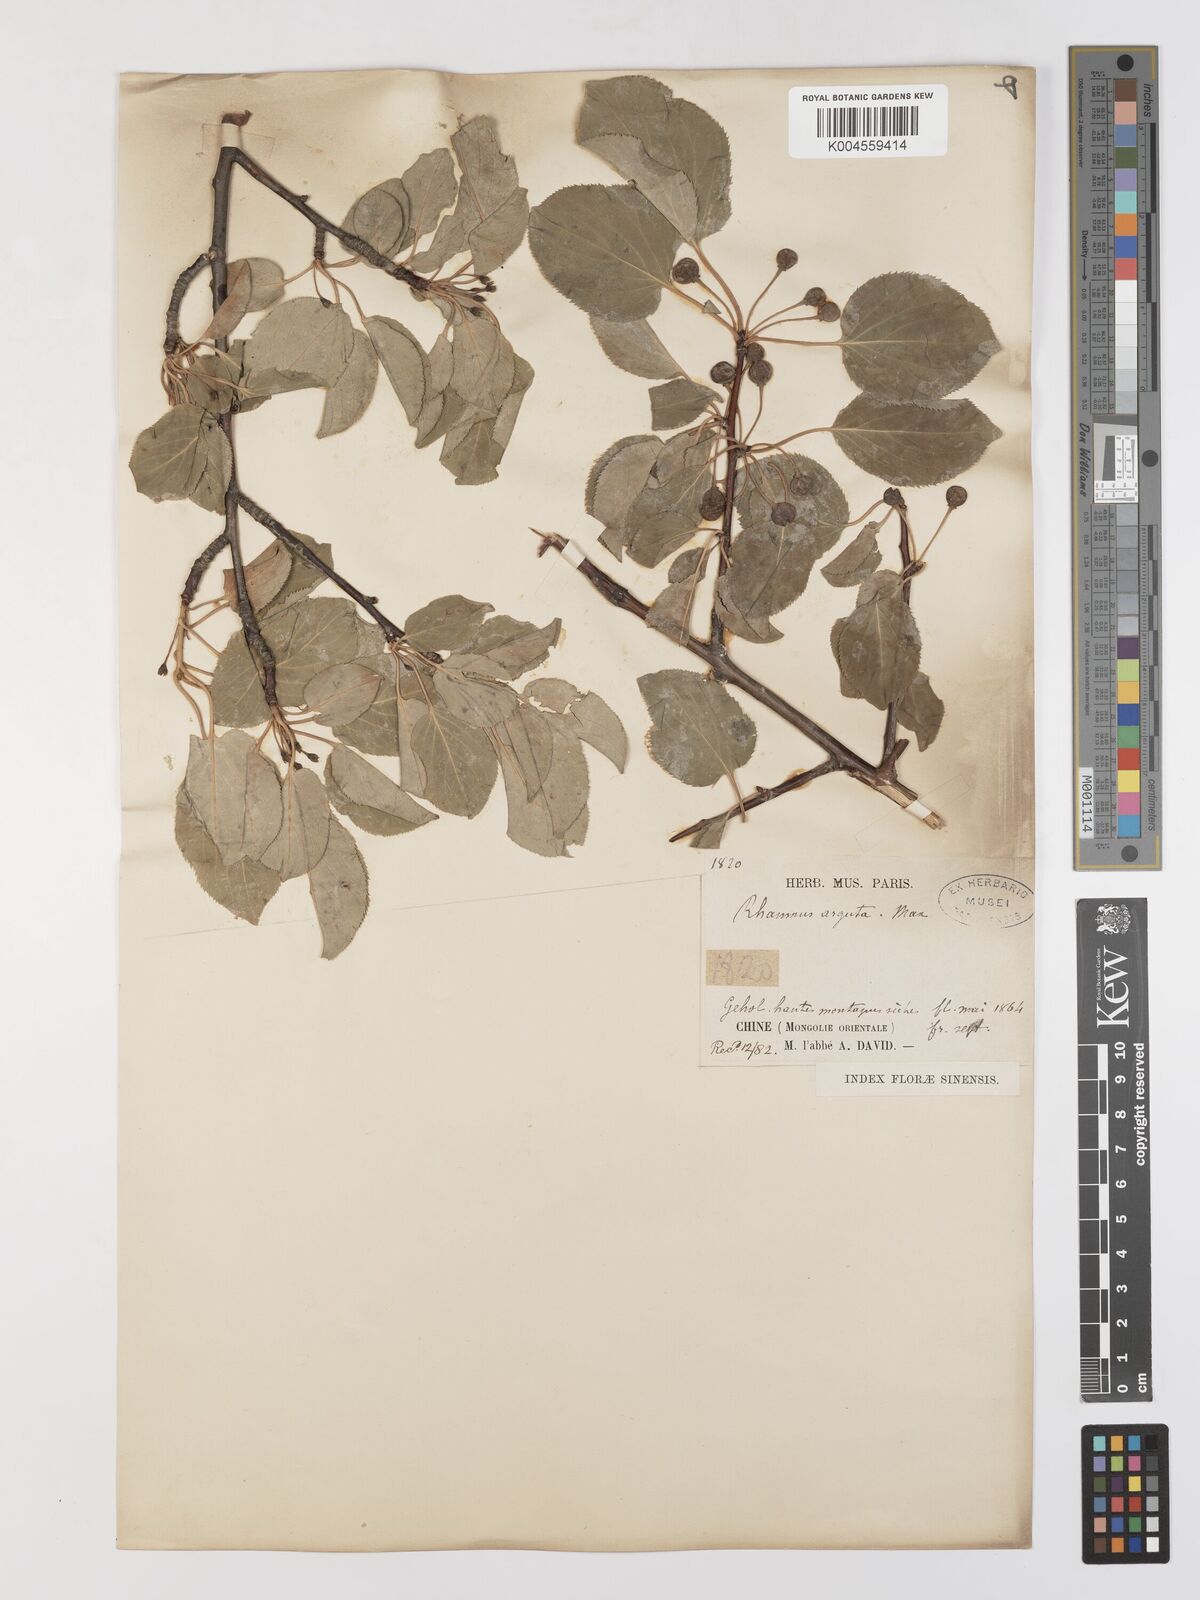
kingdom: Plantae
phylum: Tracheophyta
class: Magnoliopsida
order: Rosales
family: Rhamnaceae
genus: Rhamnus
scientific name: Rhamnus arguta
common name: Sharp-tooth buckthorn
